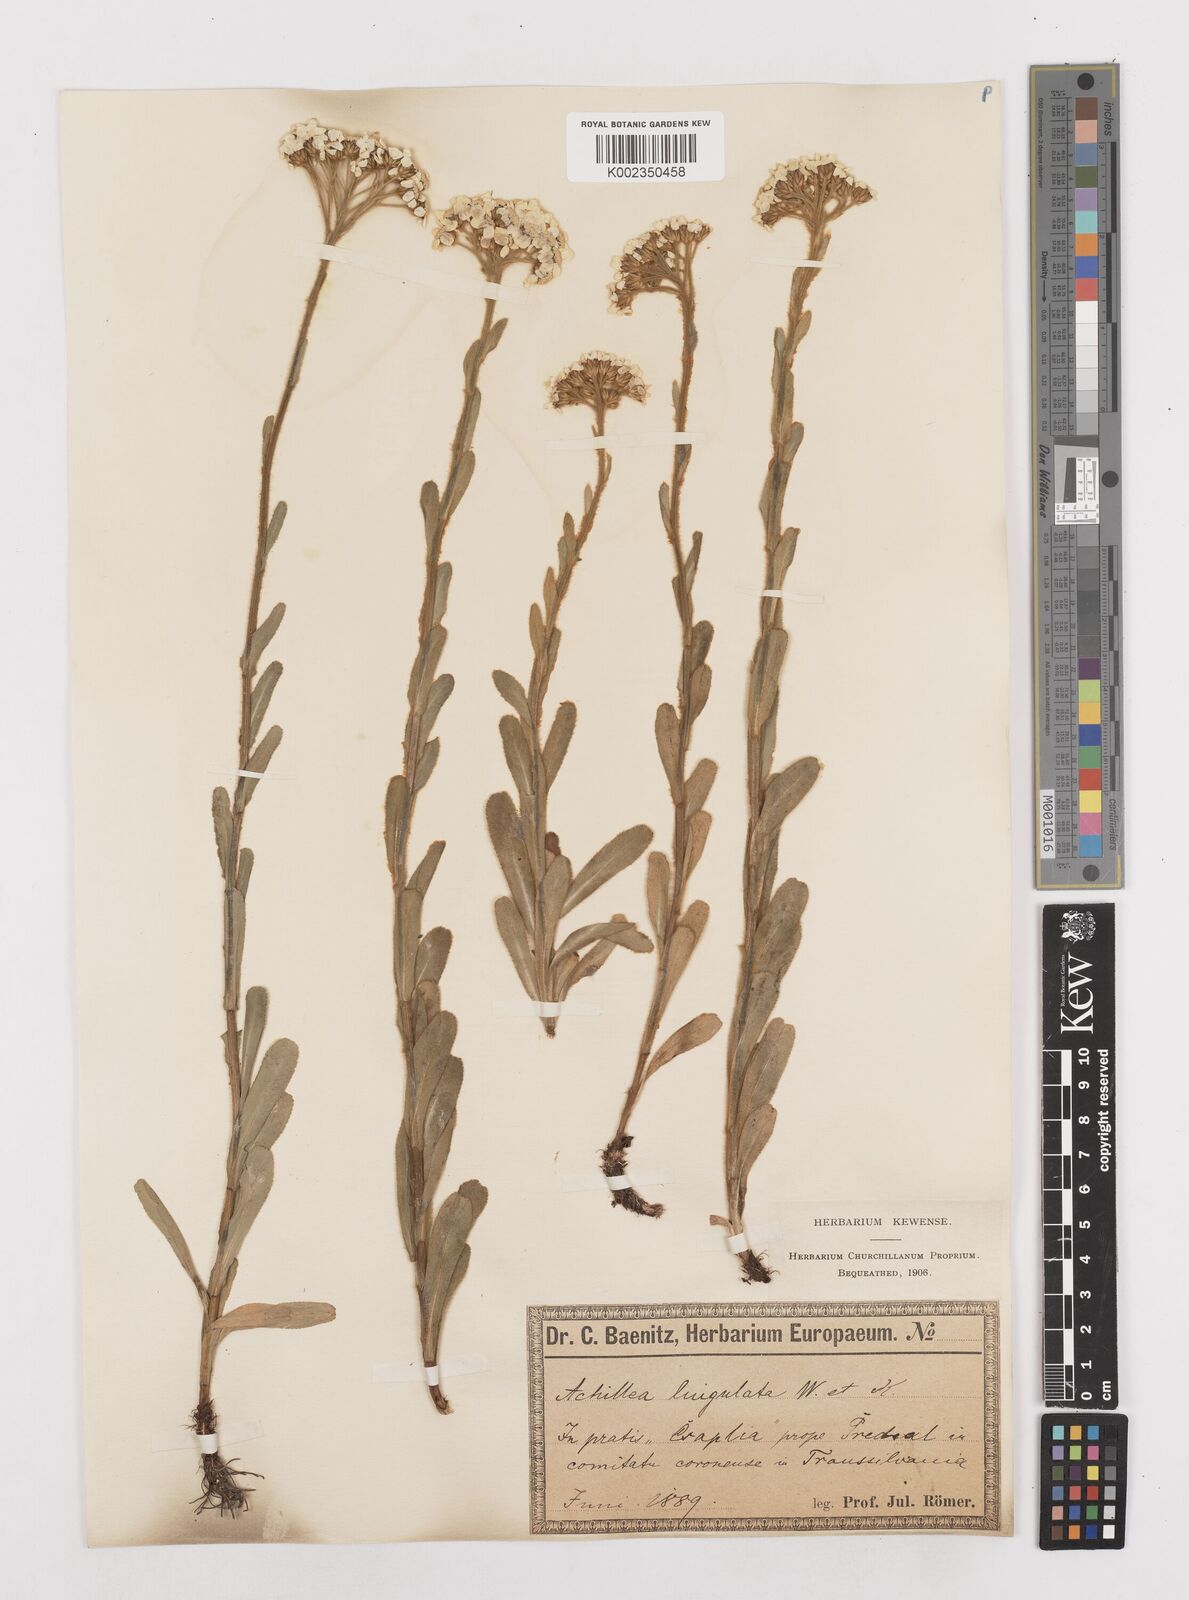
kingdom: Plantae
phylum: Tracheophyta
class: Magnoliopsida
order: Asterales
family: Asteraceae
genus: Achillea
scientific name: Achillea lingulata
